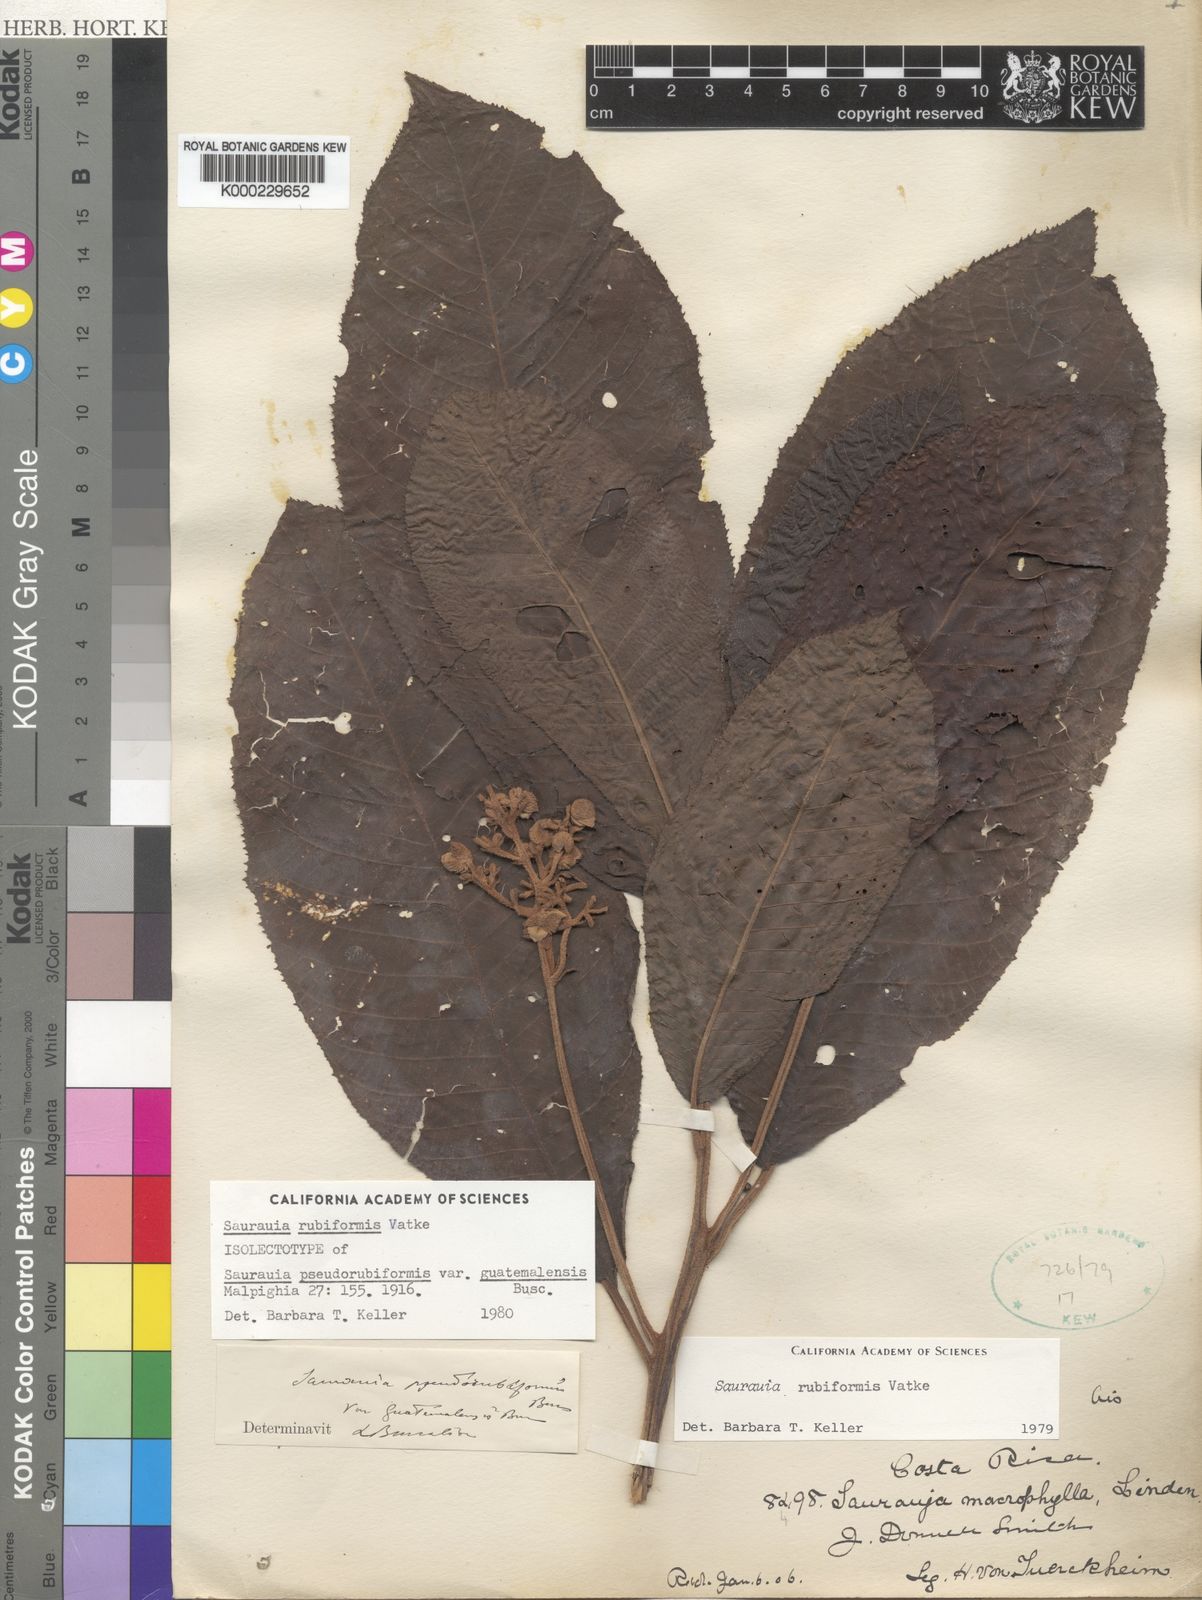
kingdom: Plantae
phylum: Tracheophyta
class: Magnoliopsida
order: Ericales
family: Actinidiaceae
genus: Saurauia
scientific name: Saurauia rubiformis
